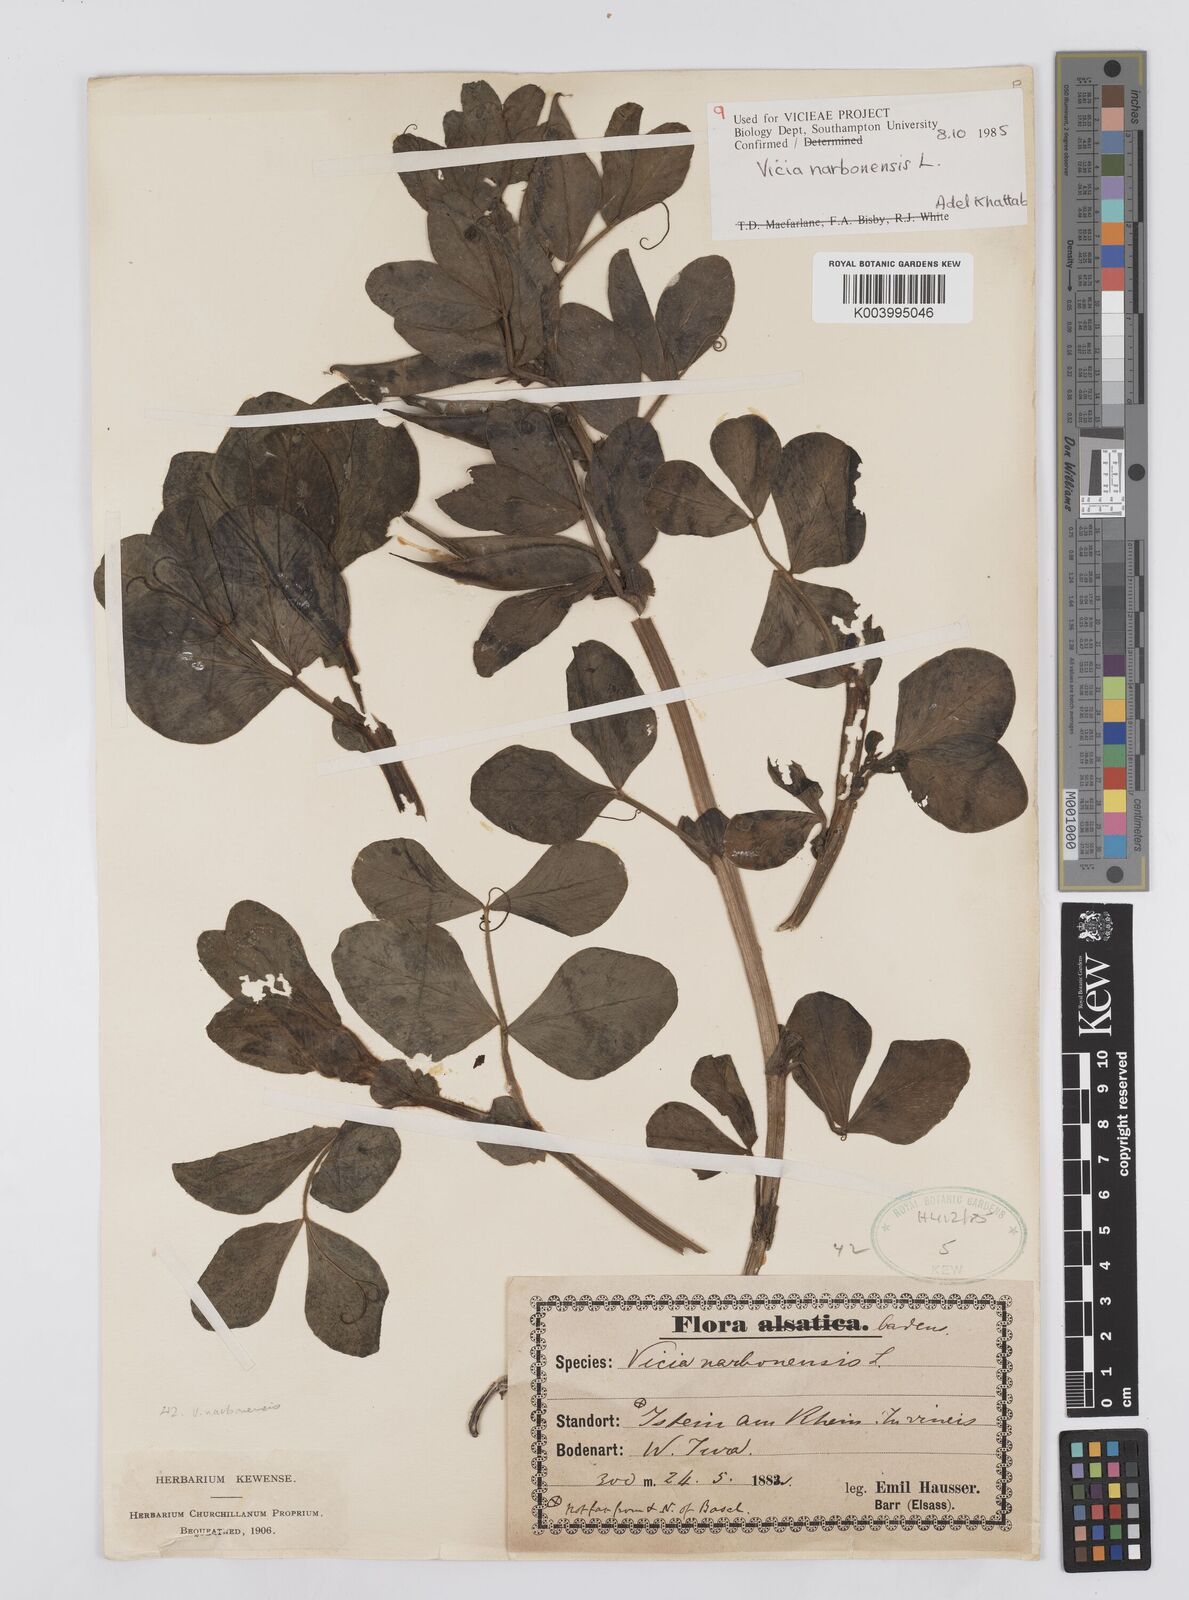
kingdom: Plantae
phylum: Tracheophyta
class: Magnoliopsida
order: Fabales
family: Fabaceae
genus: Vicia
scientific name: Vicia narbonensis
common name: Narbonne vetch
